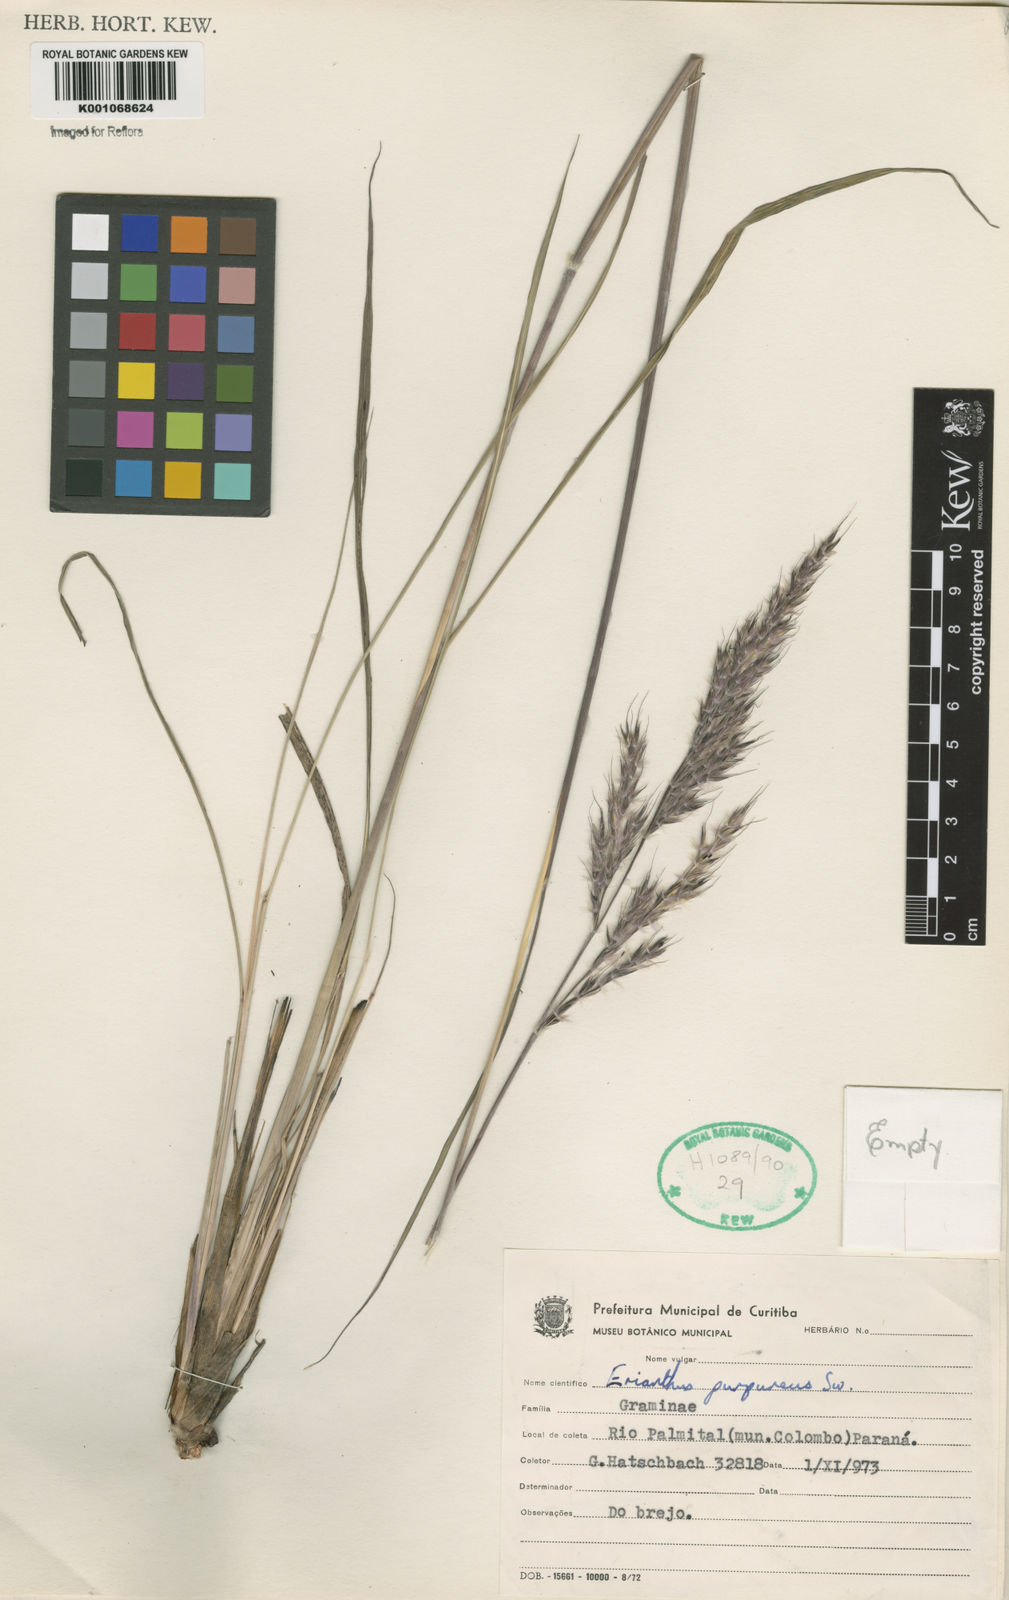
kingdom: Plantae
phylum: Tracheophyta
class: Liliopsida
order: Poales
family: Poaceae
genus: Saccharum
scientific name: Saccharum angustifolium
